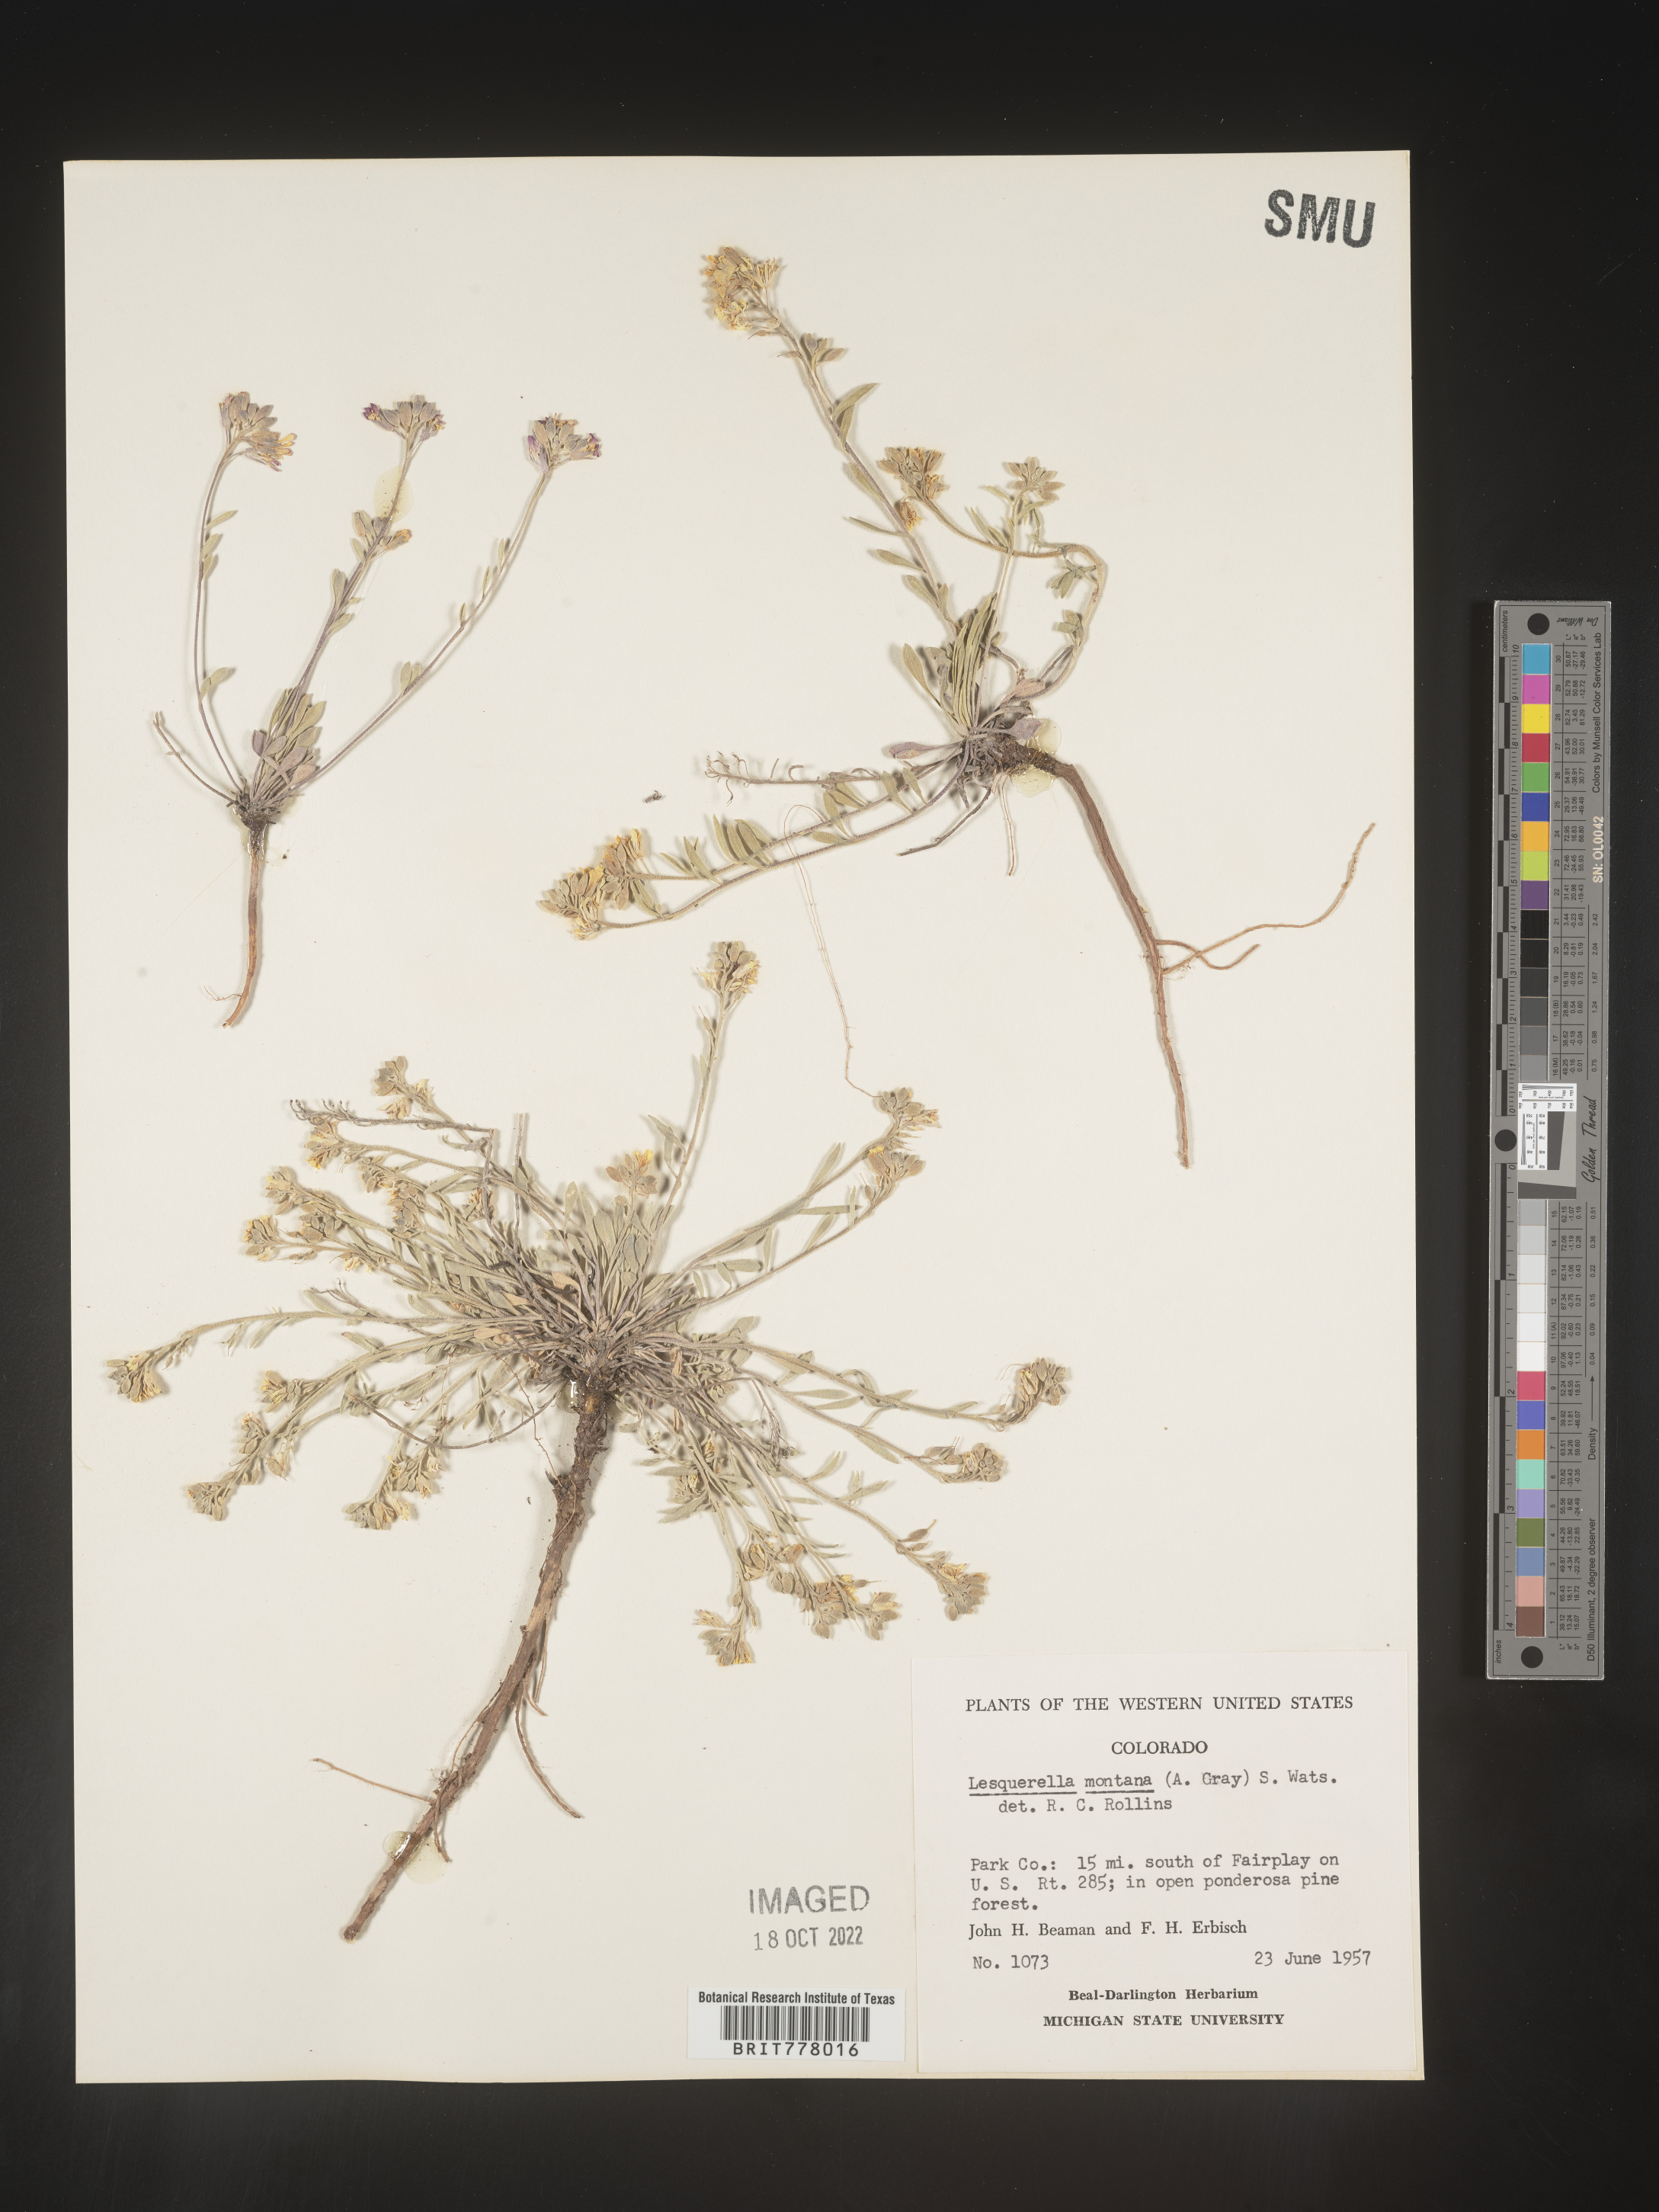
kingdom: Chromista
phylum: Cercozoa
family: Psammonobiotidae
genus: Lesquerella
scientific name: Lesquerella
